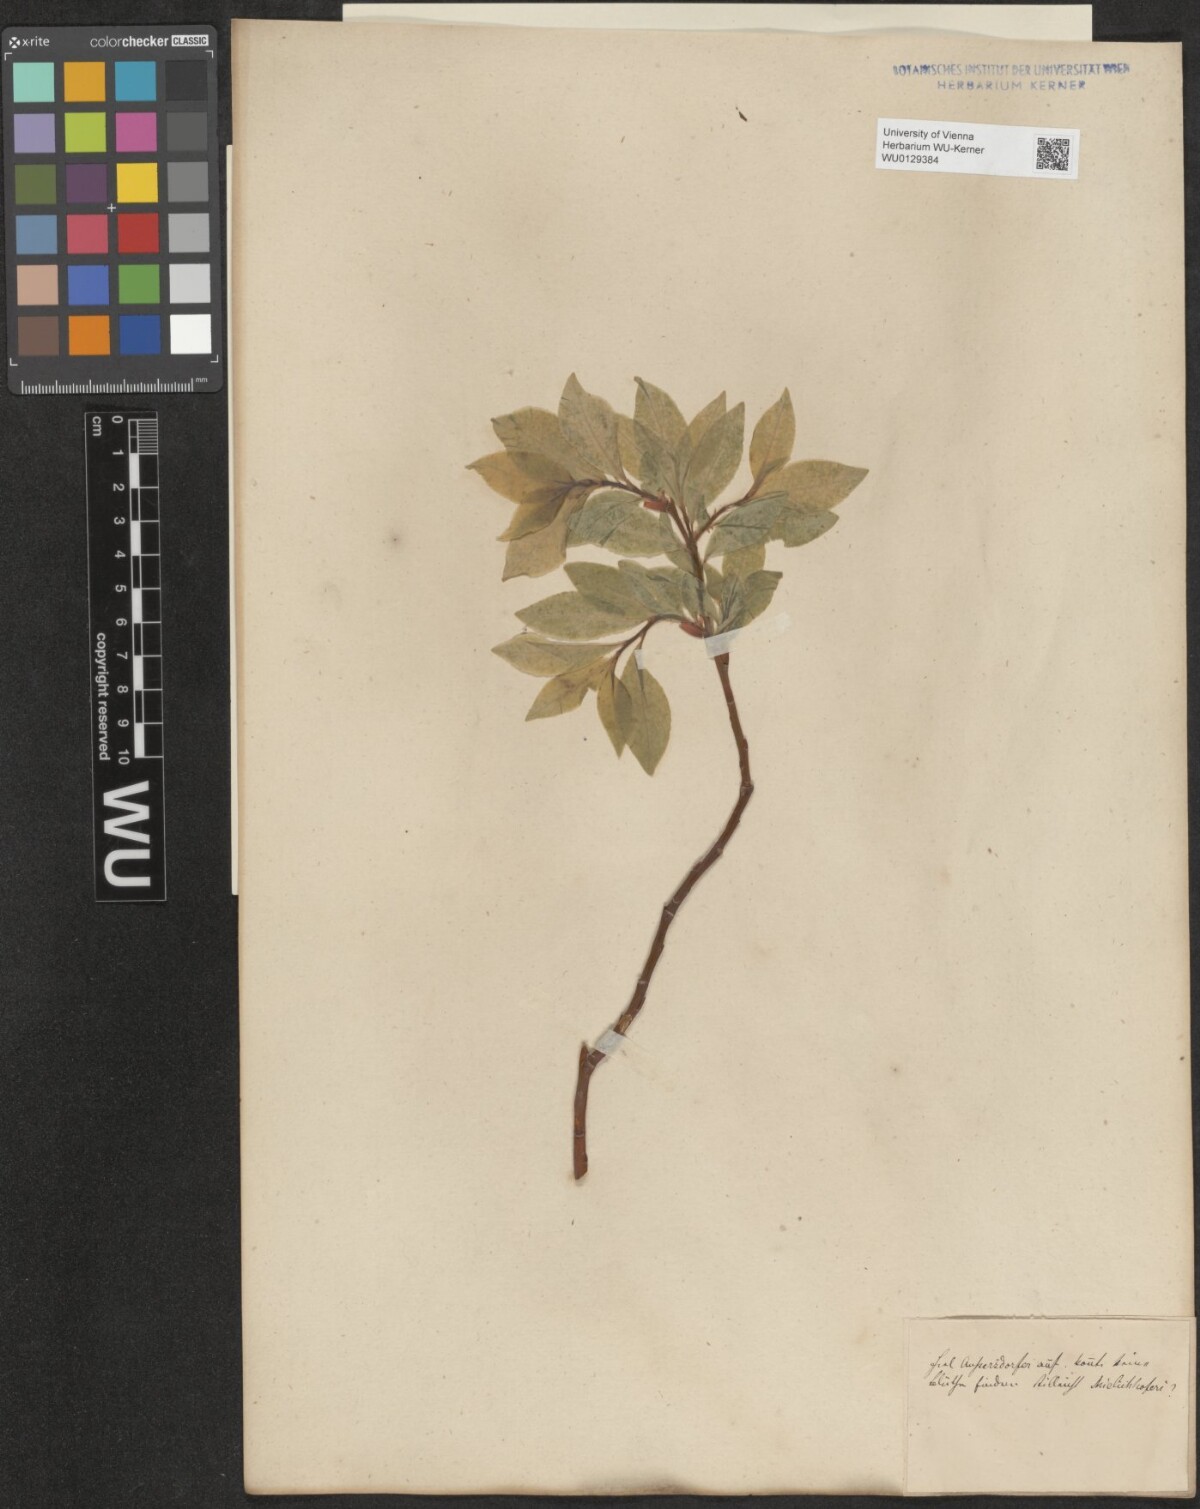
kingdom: Plantae
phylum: Tracheophyta
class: Magnoliopsida
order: Malpighiales
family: Salicaceae
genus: Salix
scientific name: Salix hastata
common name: Halberd willow
